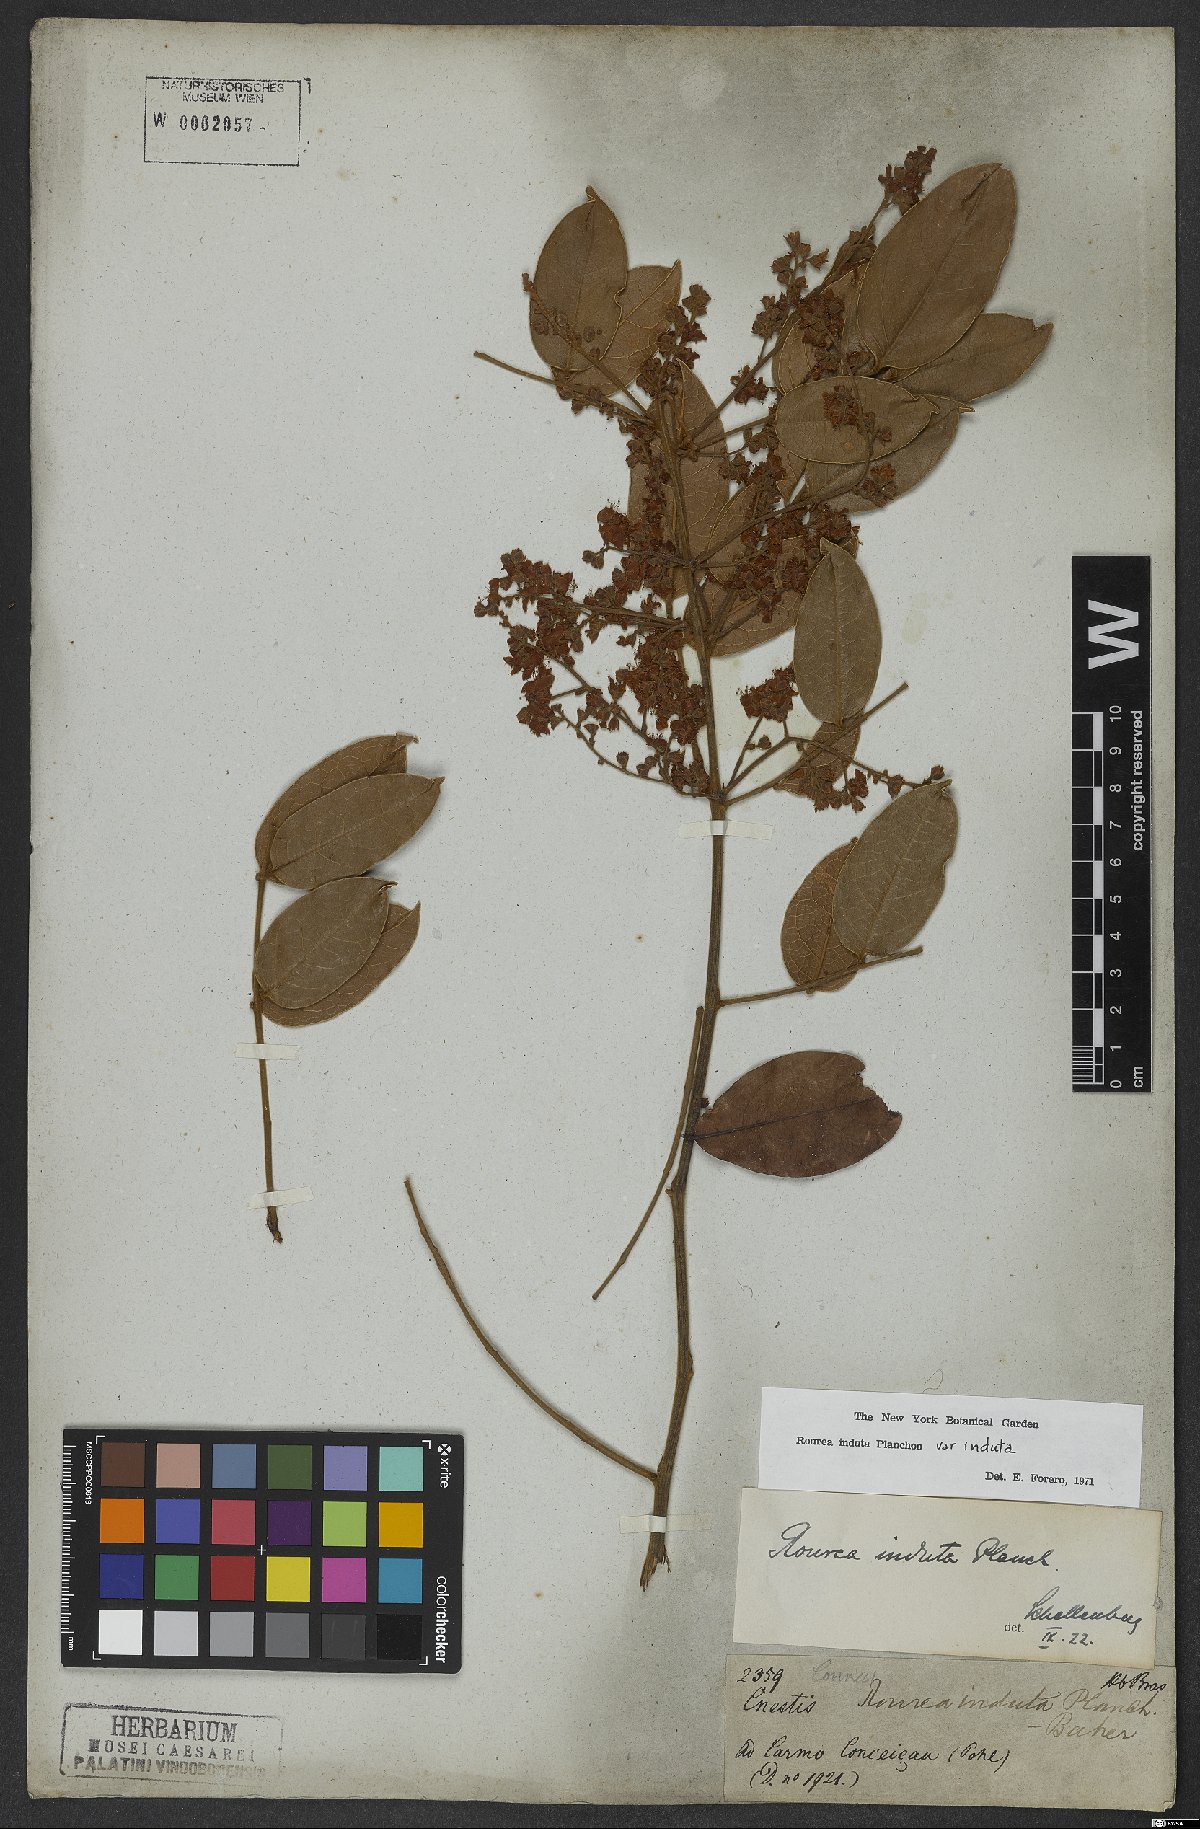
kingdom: Plantae
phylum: Tracheophyta
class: Magnoliopsida
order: Oxalidales
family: Connaraceae
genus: Rourea
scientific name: Rourea induta
